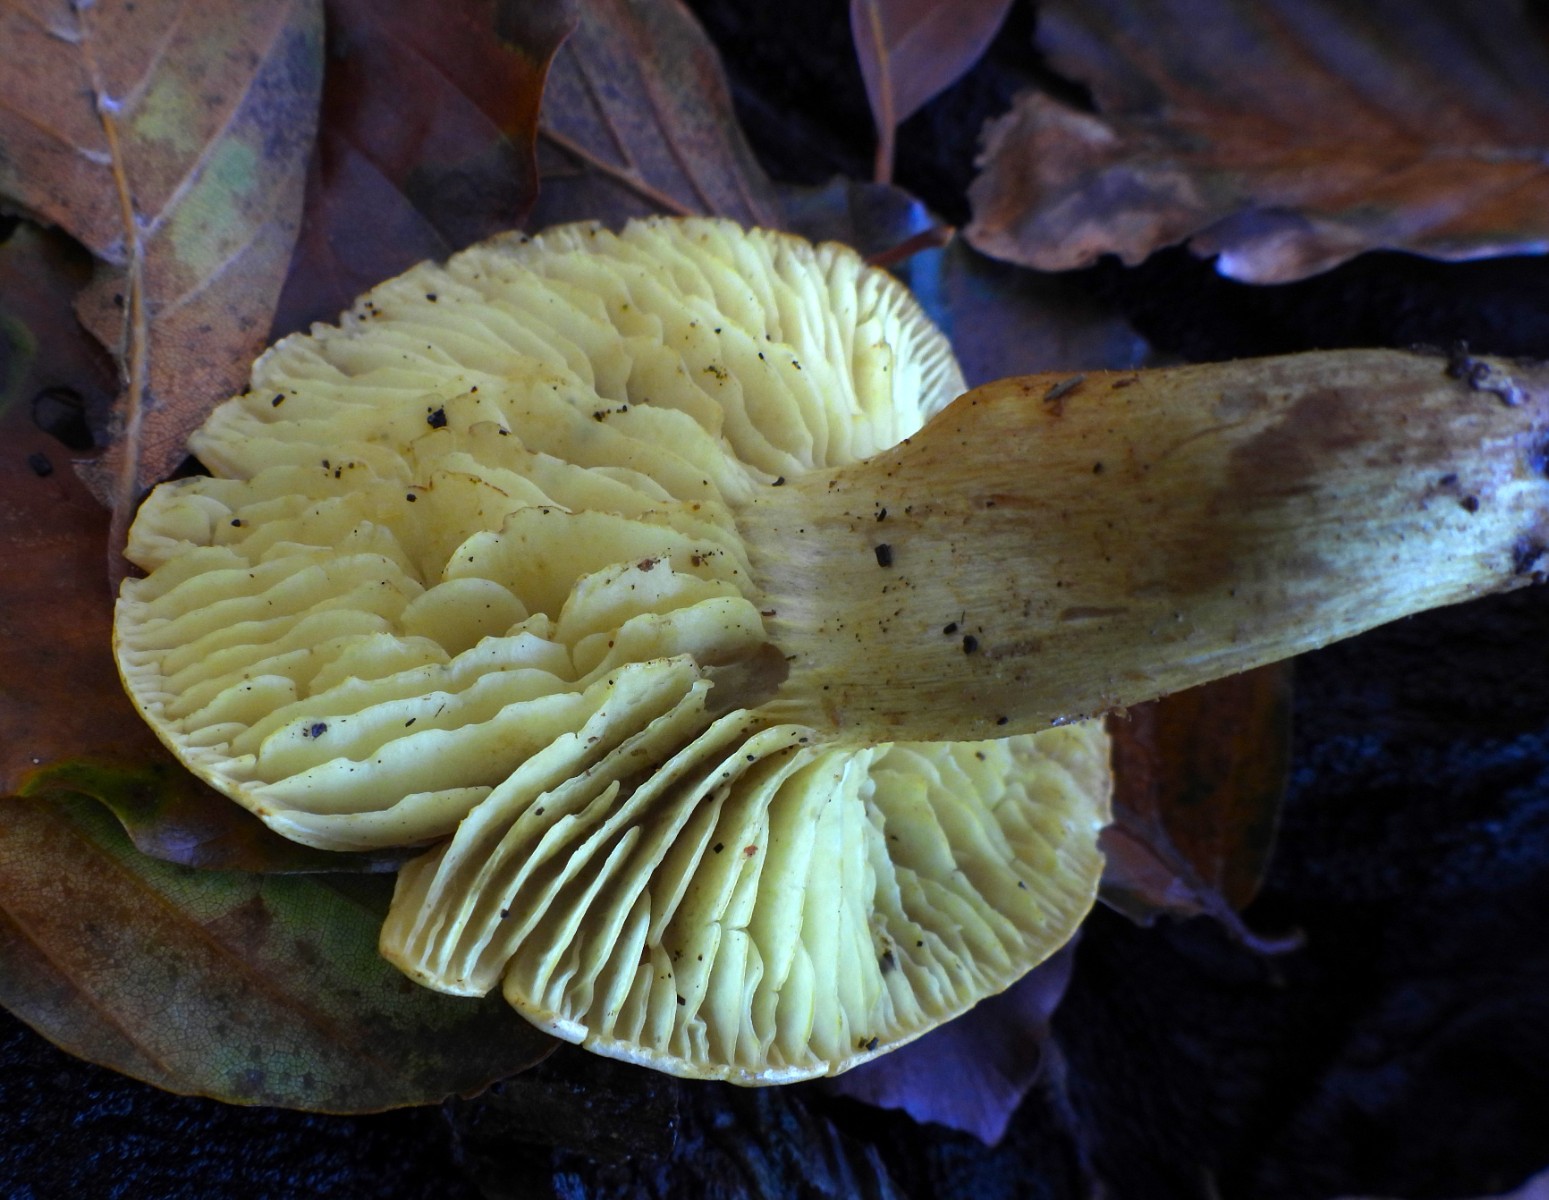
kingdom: Fungi
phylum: Basidiomycota
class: Agaricomycetes
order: Agaricales
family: Tricholomataceae
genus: Tricholoma
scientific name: Tricholoma sulphureum
